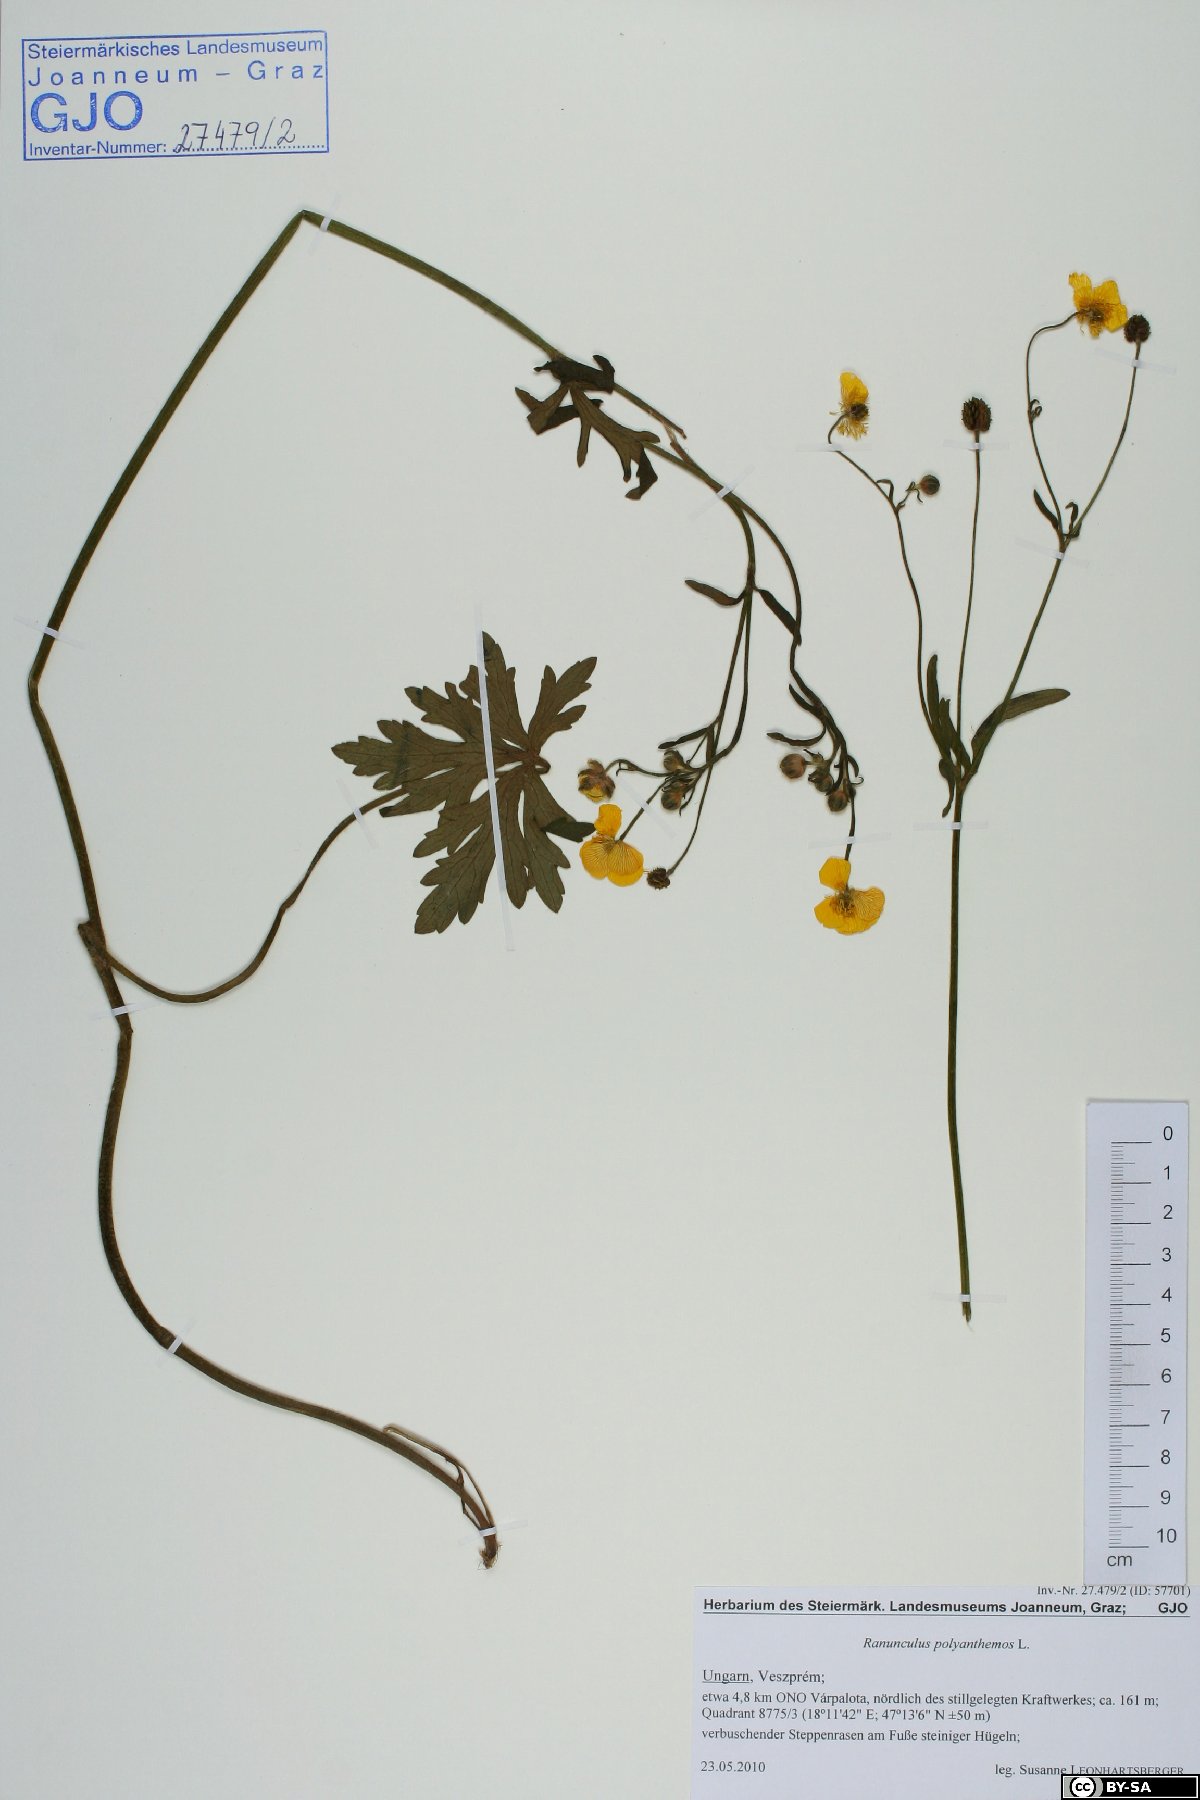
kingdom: Plantae
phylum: Tracheophyta
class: Magnoliopsida
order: Ranunculales
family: Ranunculaceae
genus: Ranunculus
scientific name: Ranunculus polyanthemos
